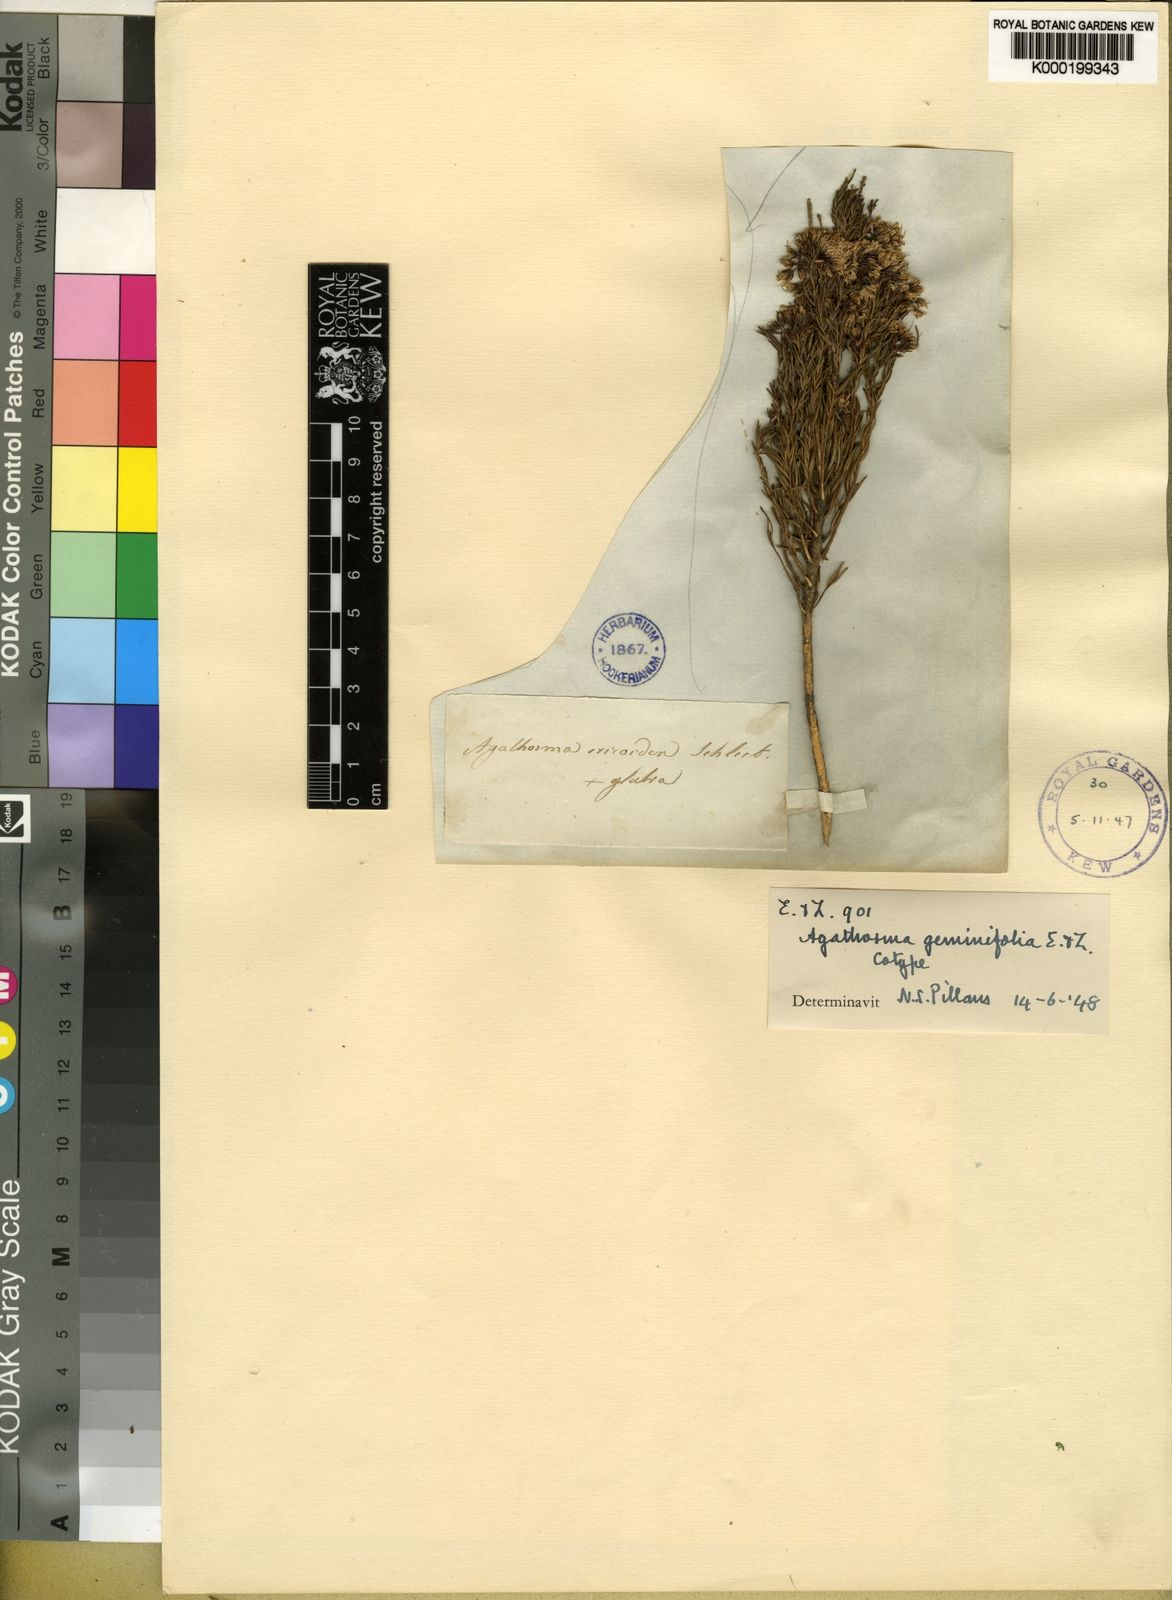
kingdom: Plantae
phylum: Tracheophyta
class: Magnoliopsida
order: Sapindales
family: Rutaceae
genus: Agathosma
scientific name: Agathosma capensis
